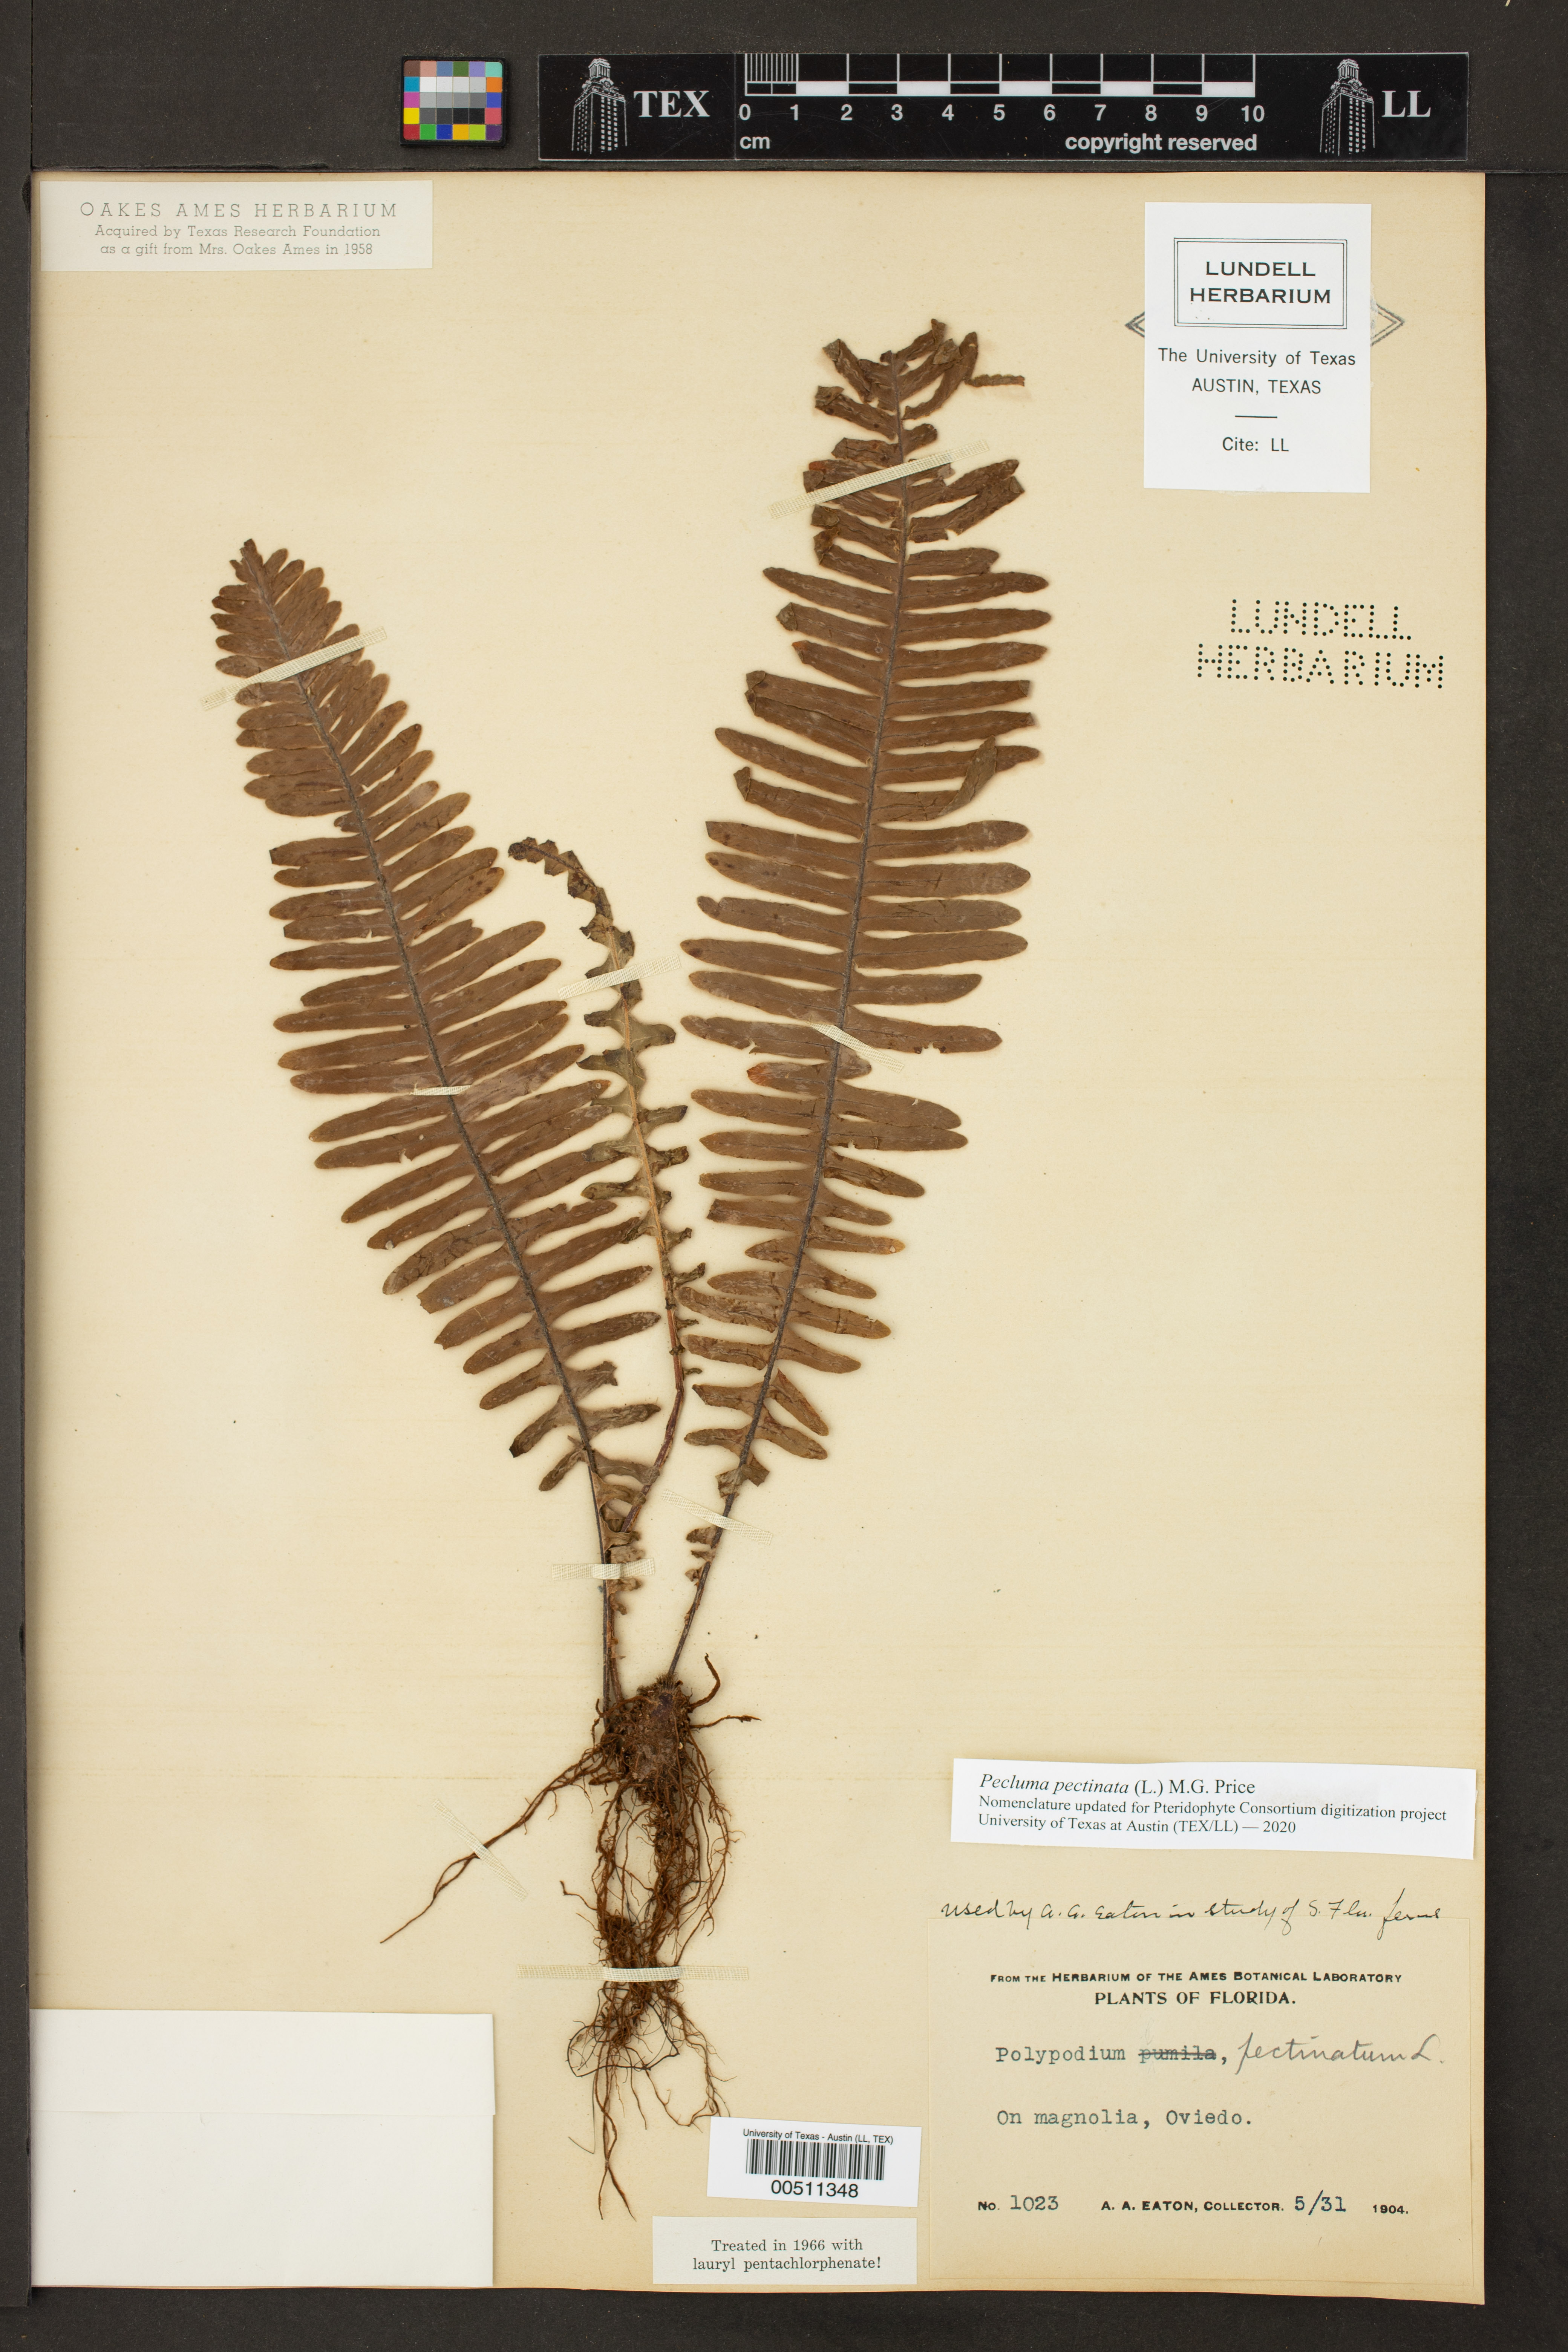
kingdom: Plantae
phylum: Tracheophyta
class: Polypodiopsida
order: Polypodiales
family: Polypodiaceae
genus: Pecluma
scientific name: Pecluma pectinata
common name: Msasa fern
